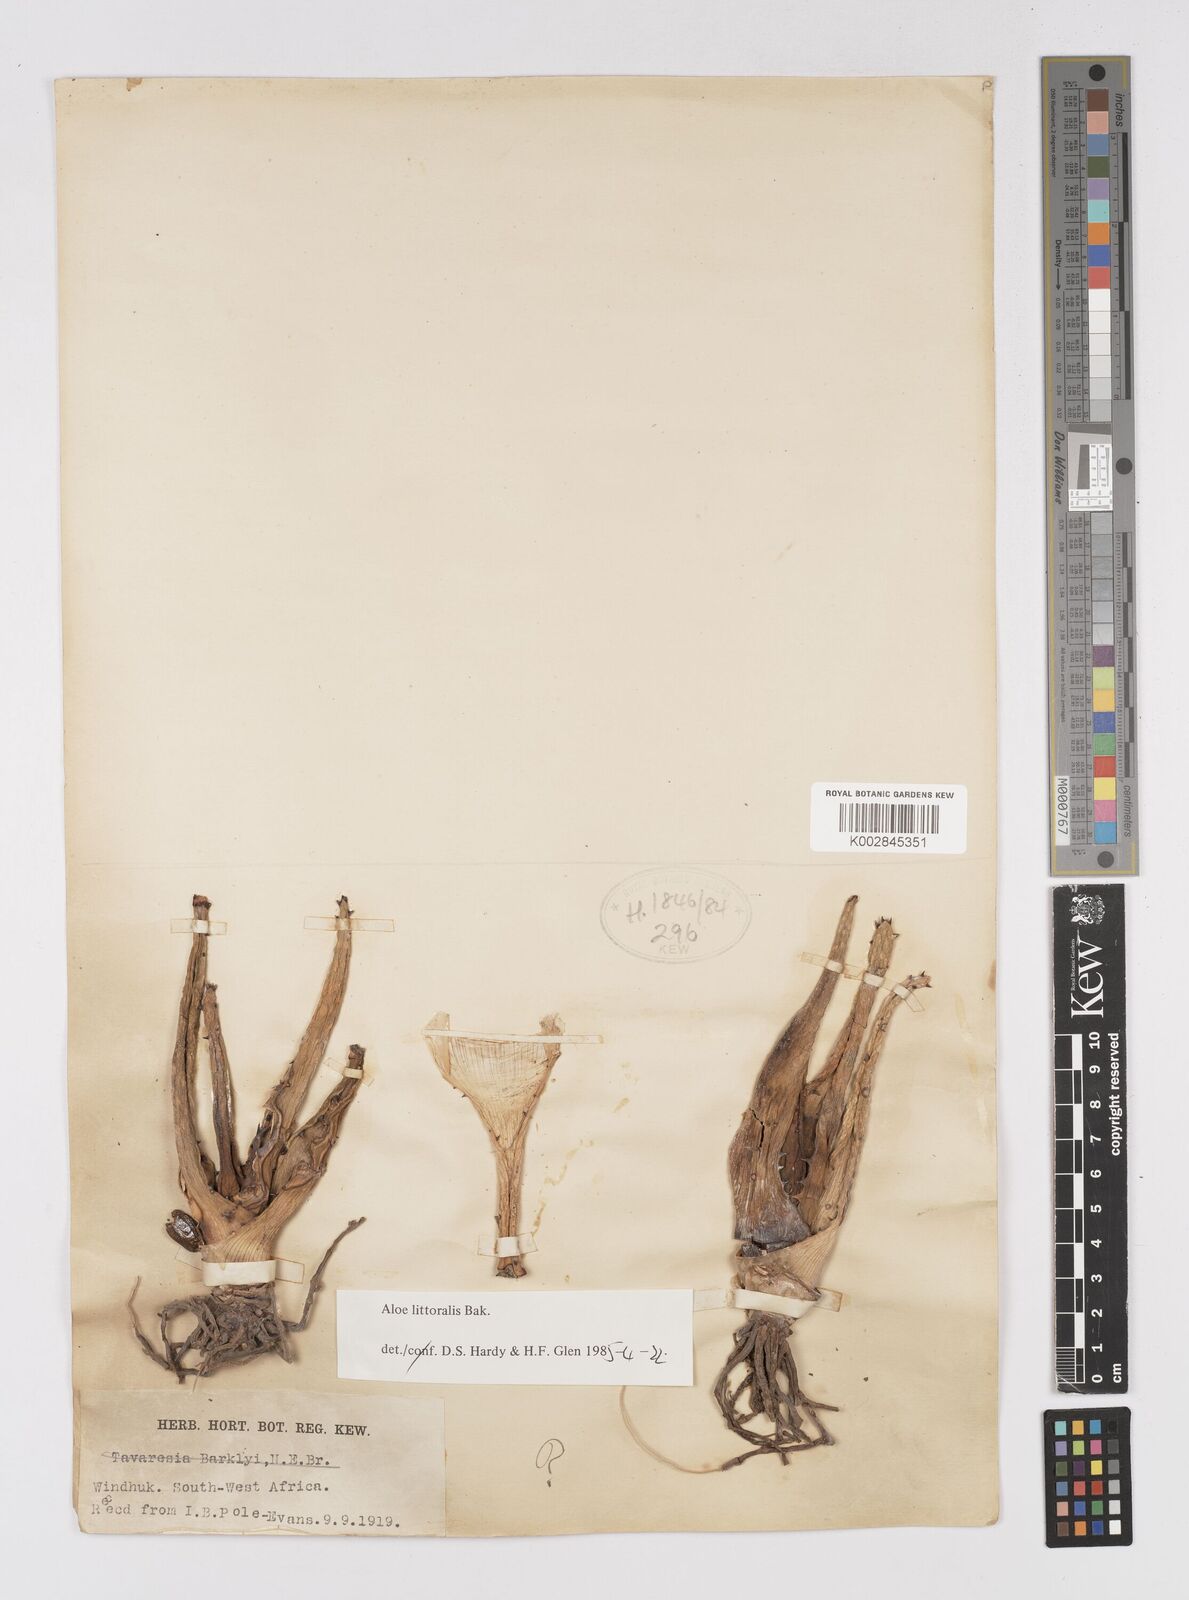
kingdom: Plantae
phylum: Tracheophyta
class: Liliopsida
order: Asparagales
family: Asphodelaceae
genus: Aloe
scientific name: Aloe littoralis
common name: Luanda tree aloe
